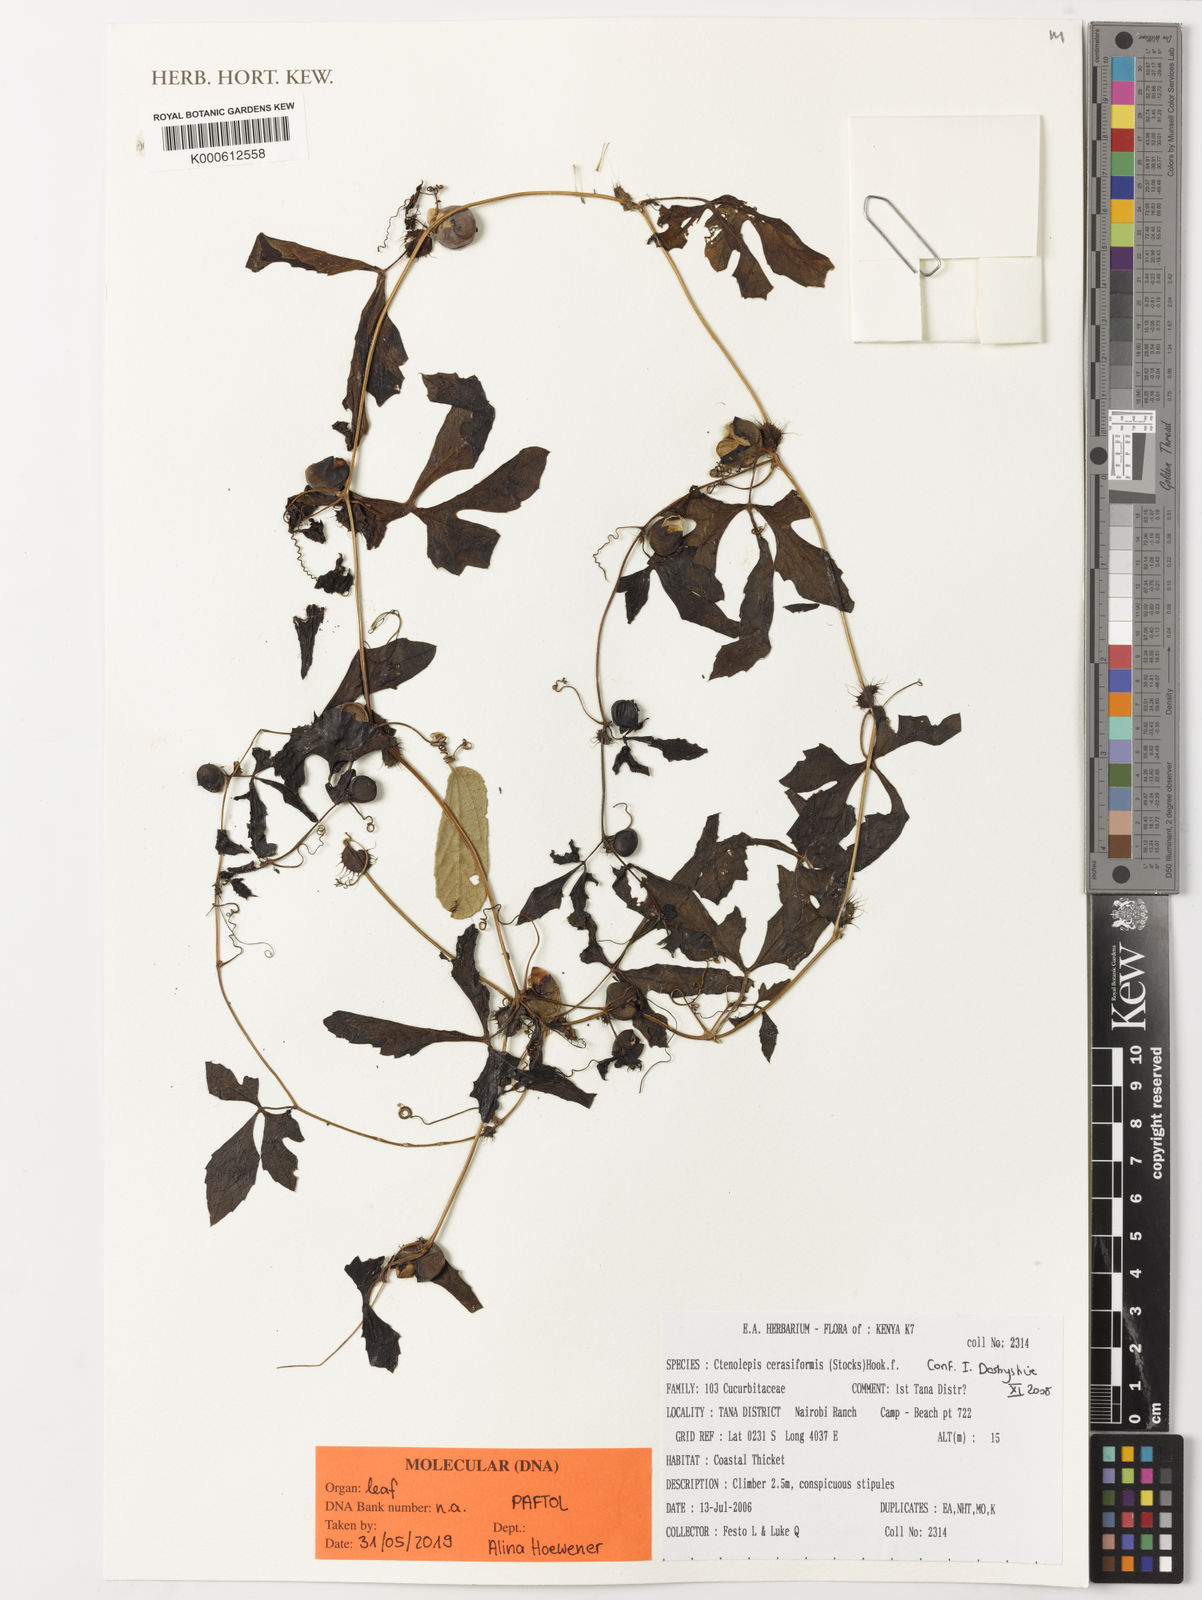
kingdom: Plantae
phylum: Tracheophyta
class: Magnoliopsida
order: Cucurbitales
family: Cucurbitaceae
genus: Blastania
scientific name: Blastania
